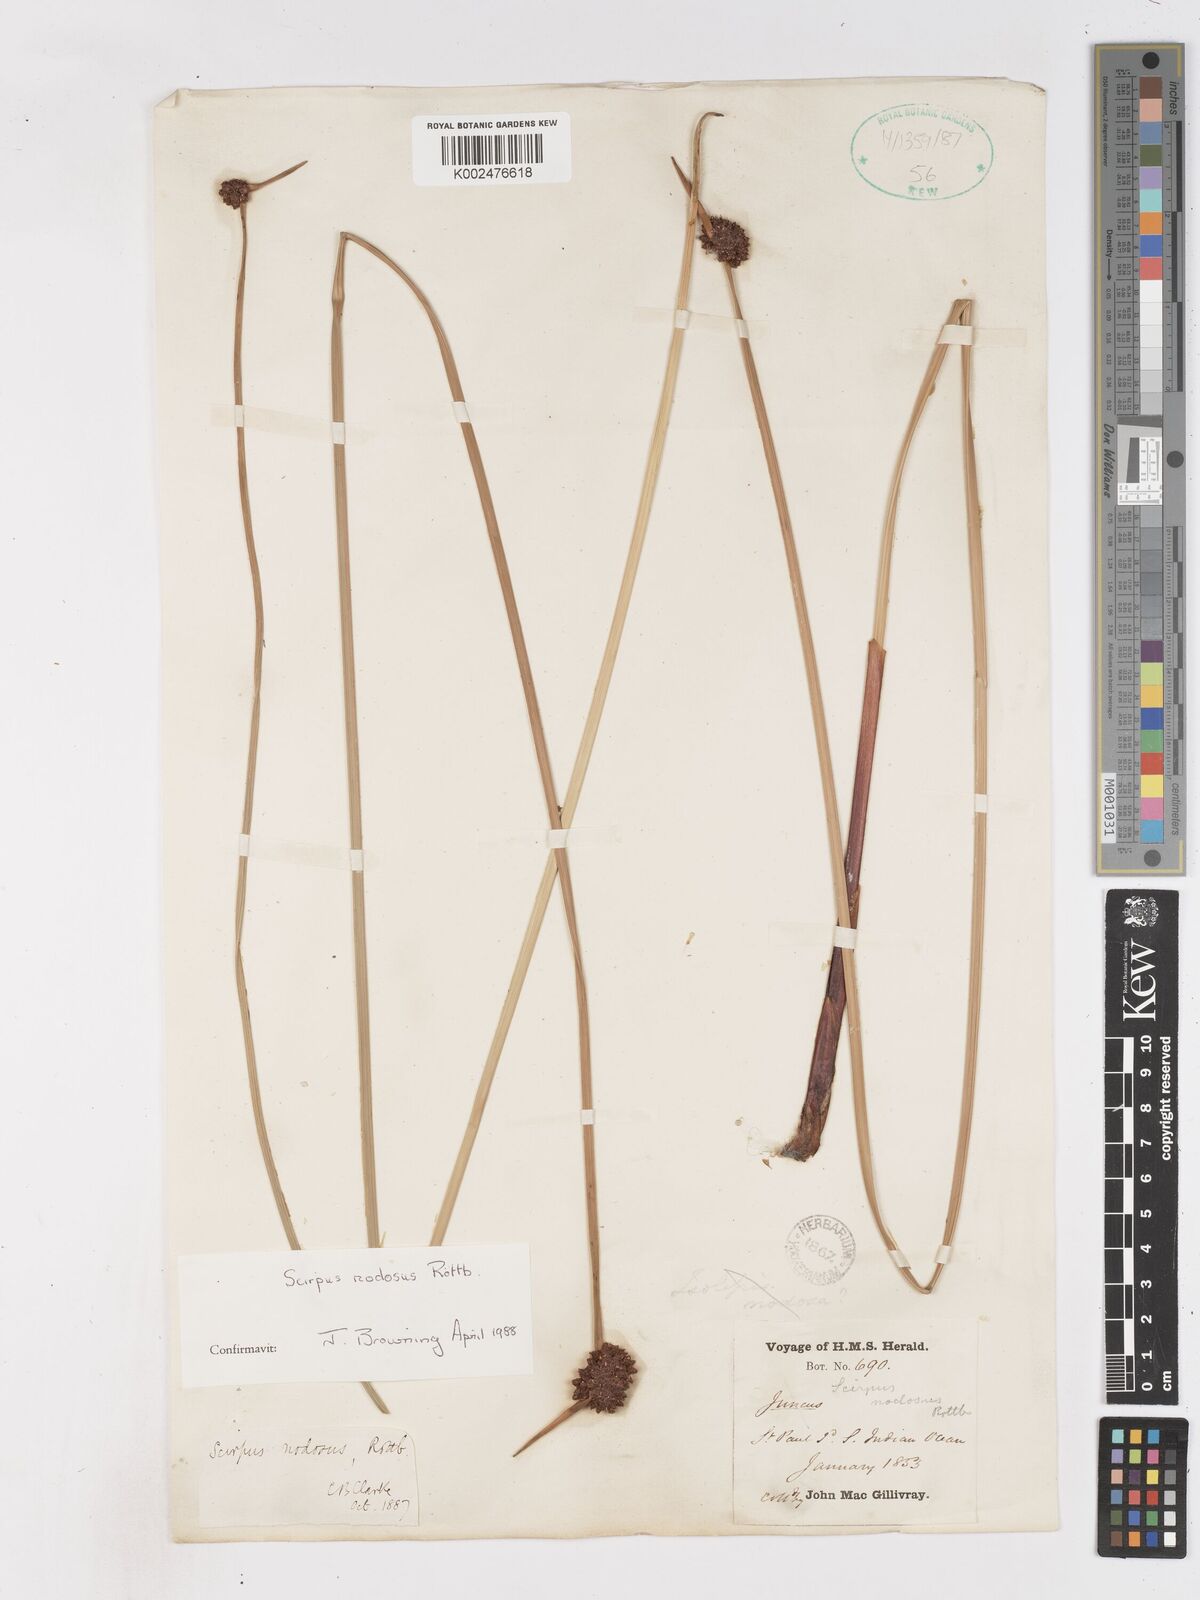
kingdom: Plantae
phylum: Tracheophyta
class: Liliopsida
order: Poales
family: Cyperaceae
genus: Ficinia
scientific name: Ficinia nodosa
